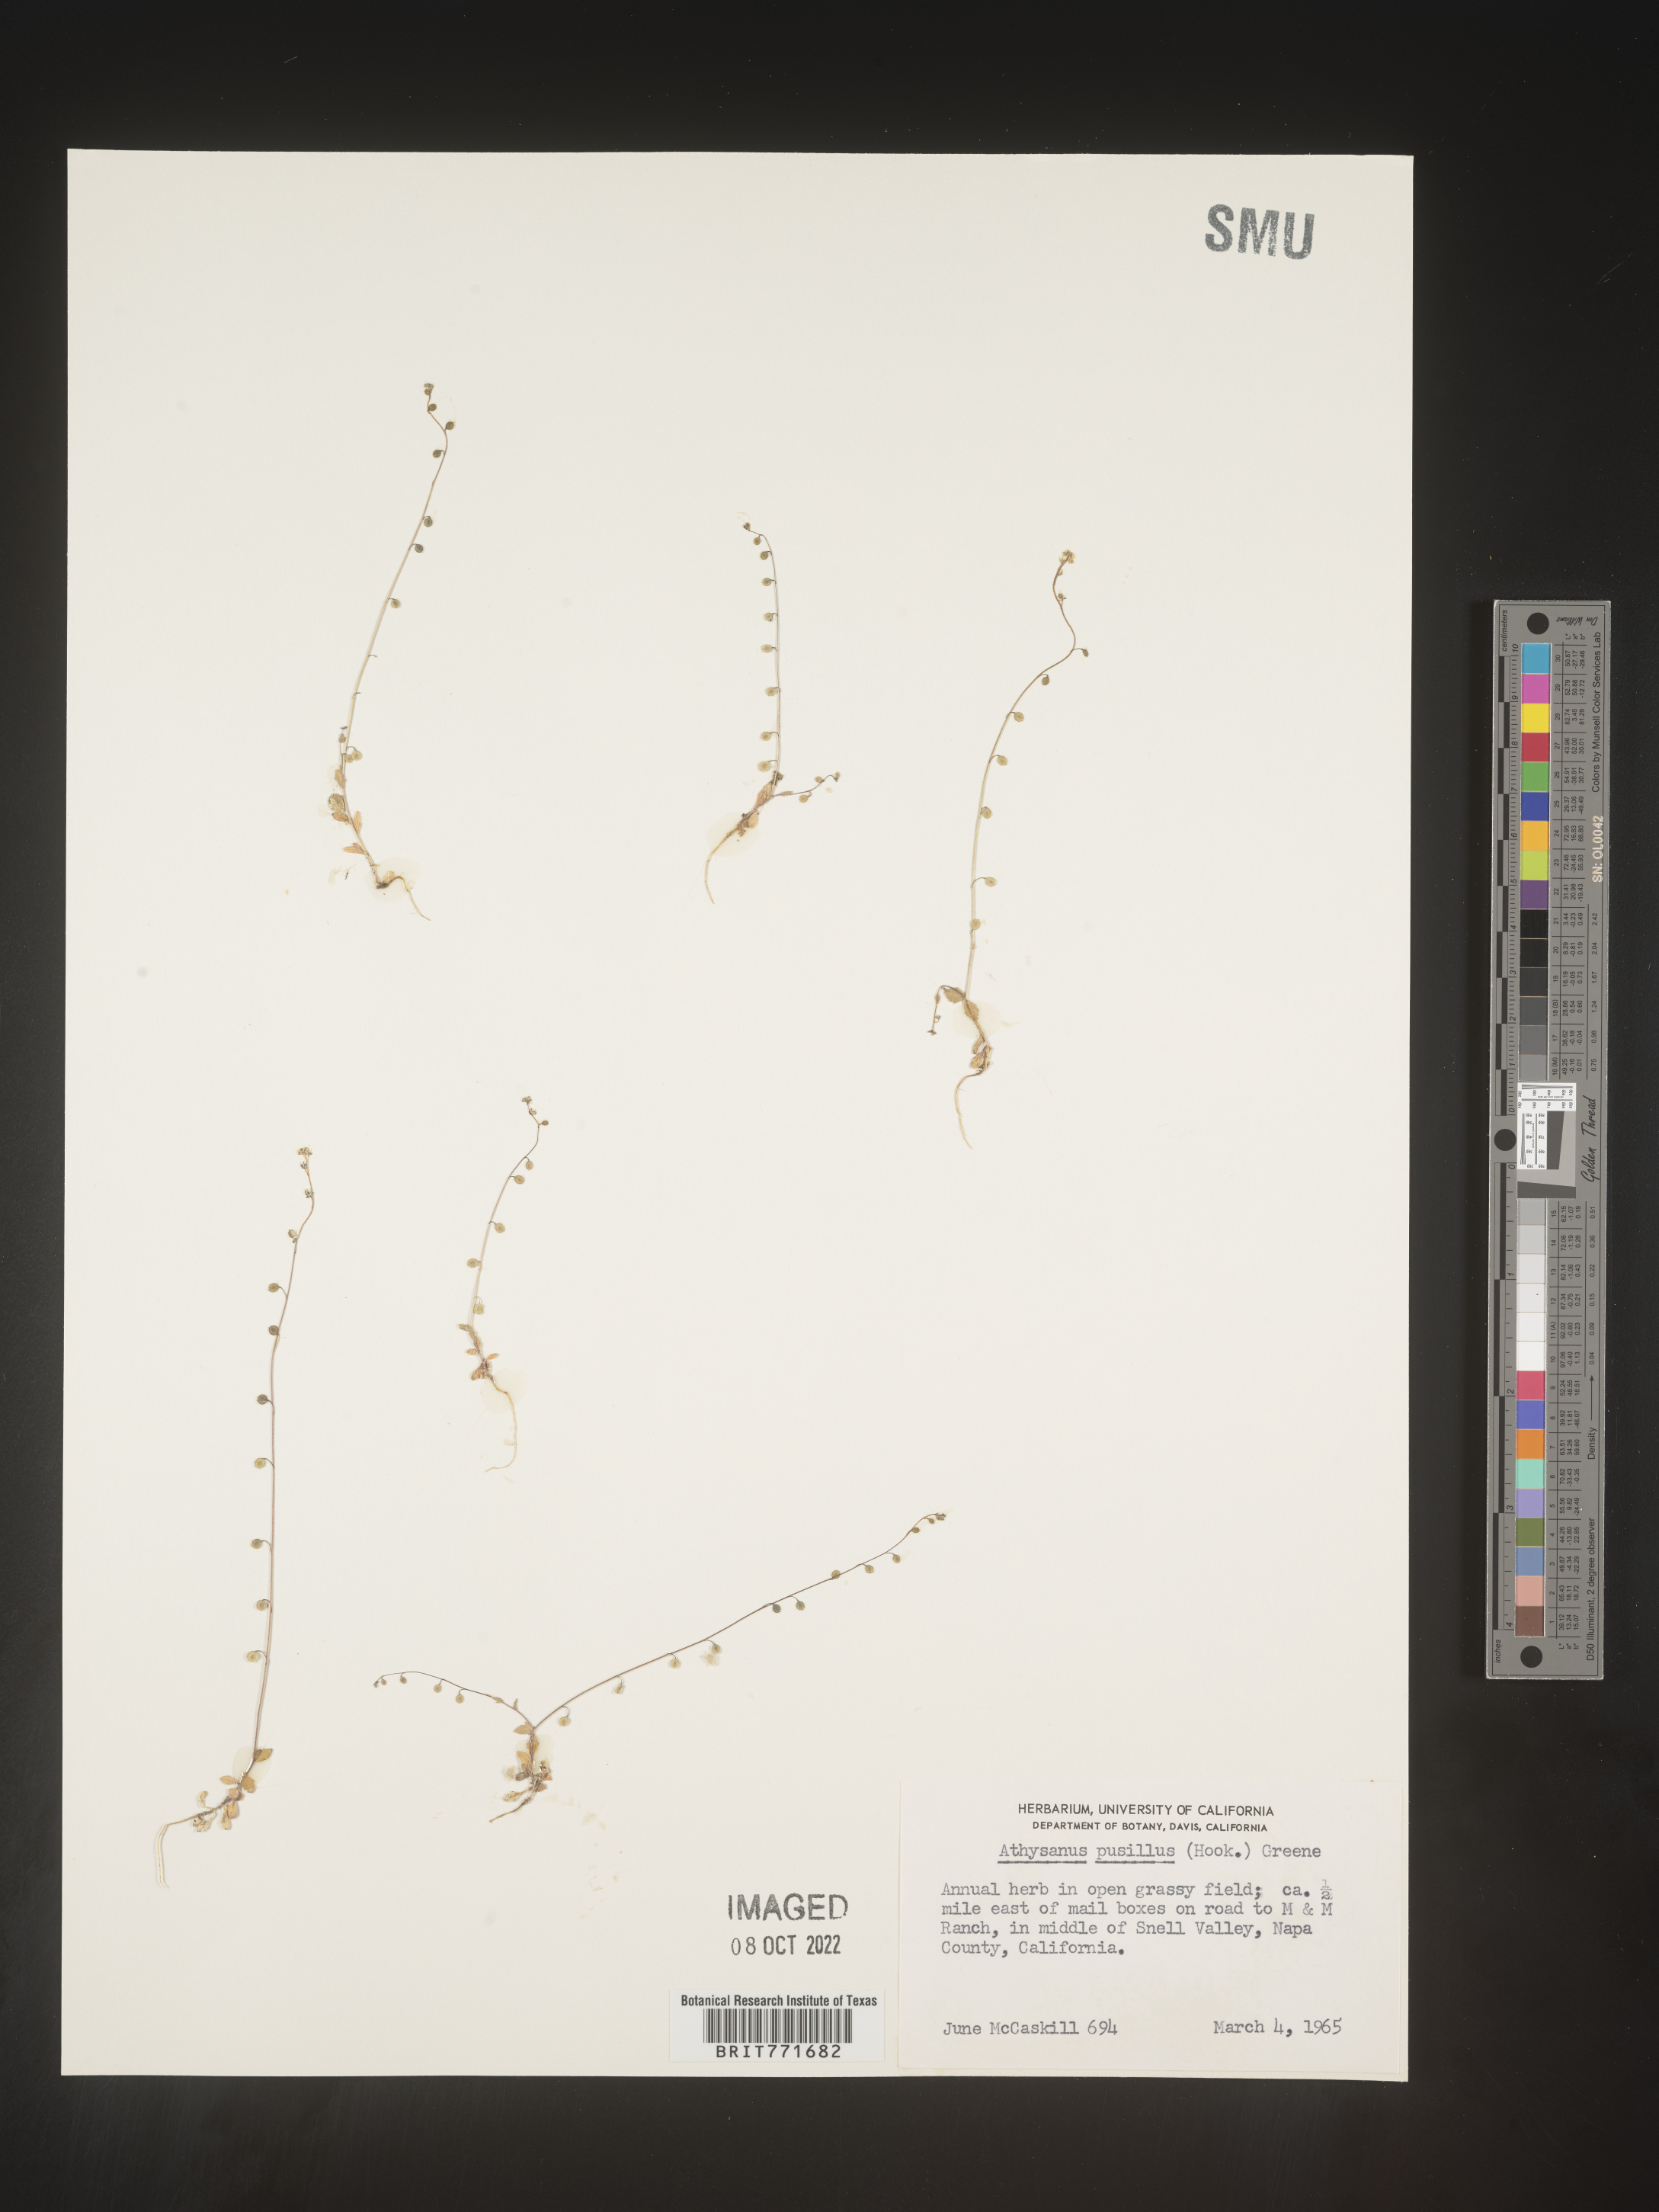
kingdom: Plantae
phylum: Tracheophyta
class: Magnoliopsida
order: Brassicales
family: Brassicaceae
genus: Athysanus
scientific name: Athysanus
